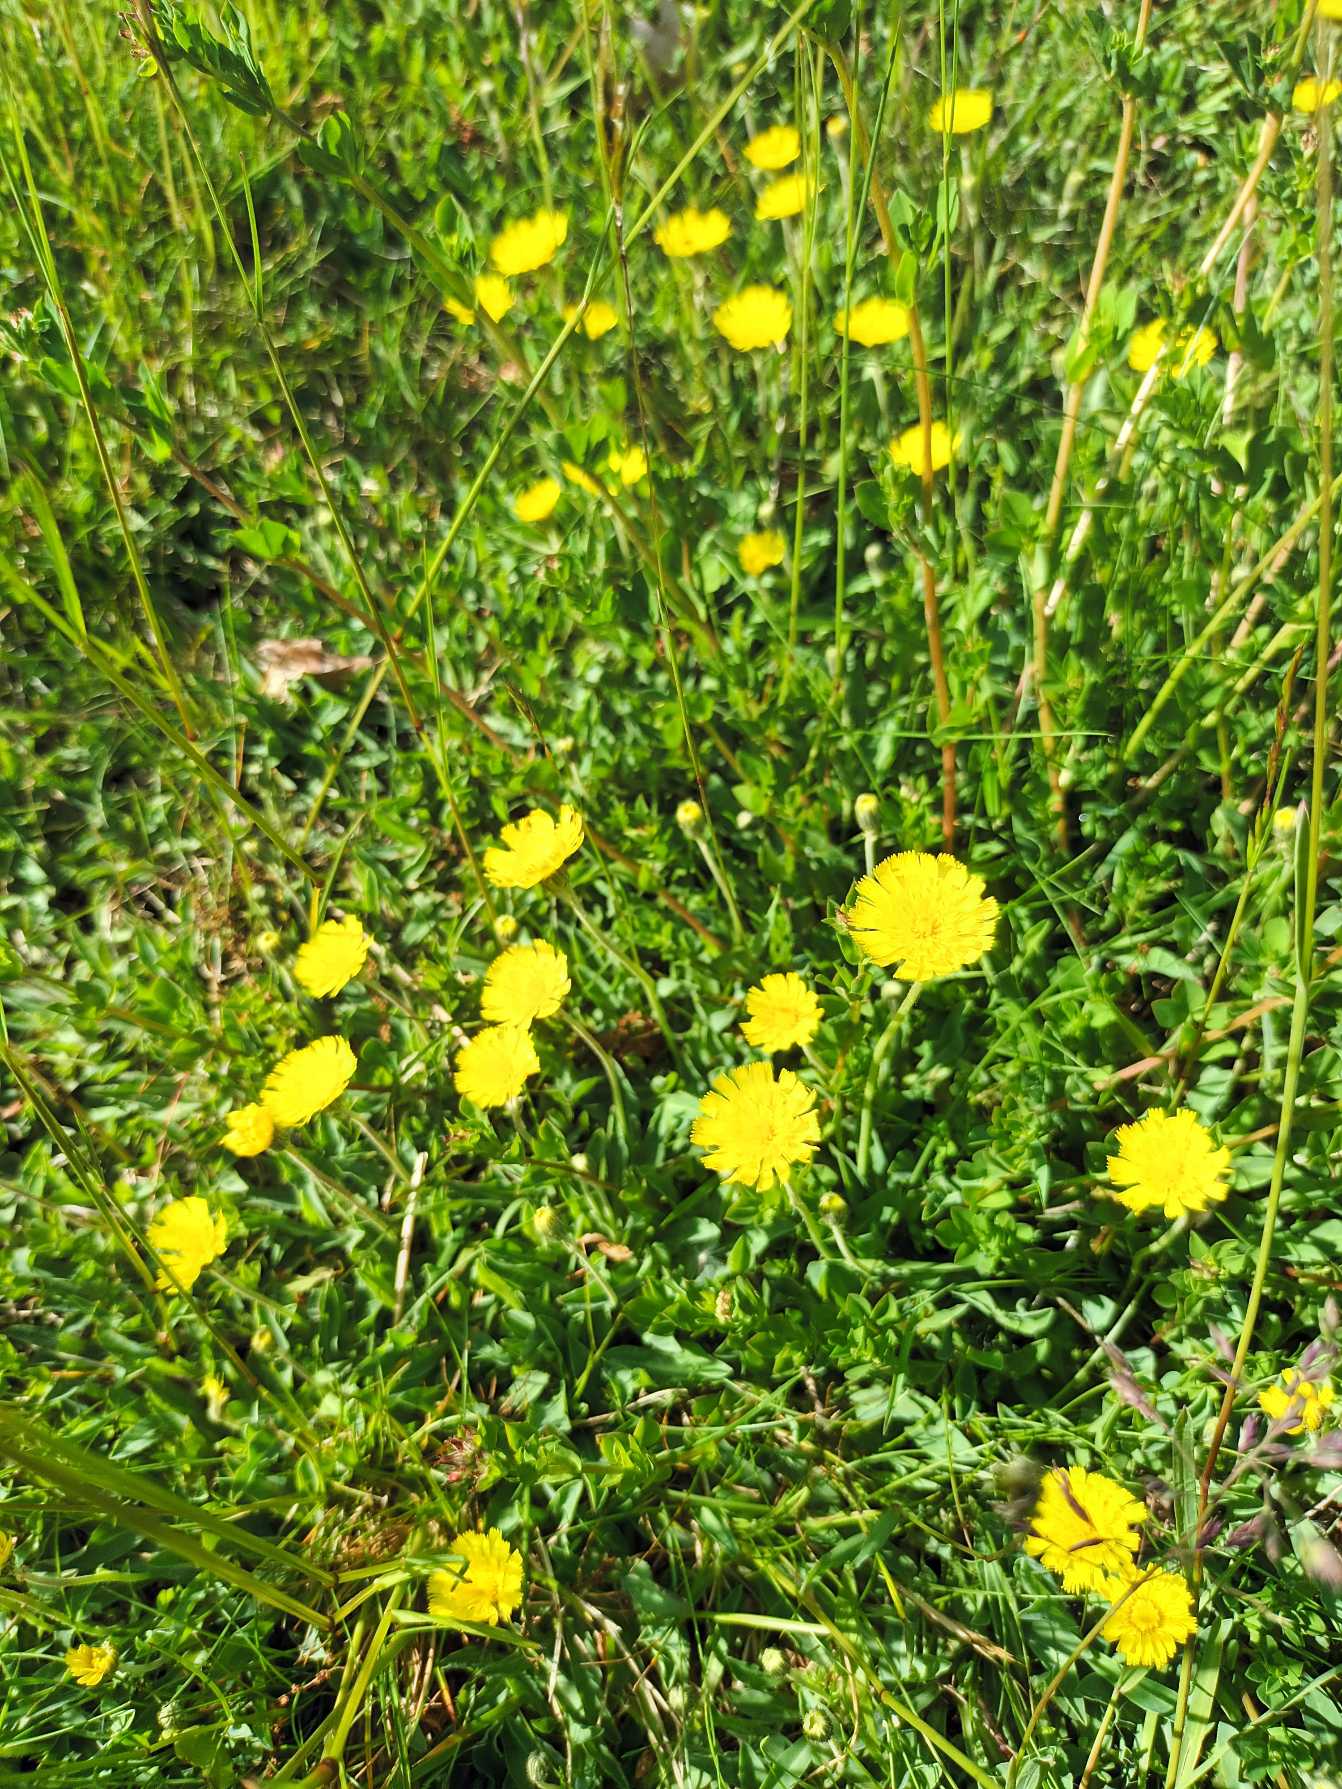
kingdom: Plantae
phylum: Tracheophyta
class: Magnoliopsida
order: Asterales
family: Asteraceae
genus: Pilosella
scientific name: Pilosella lactucella
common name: Lancetbladet høgeurt
